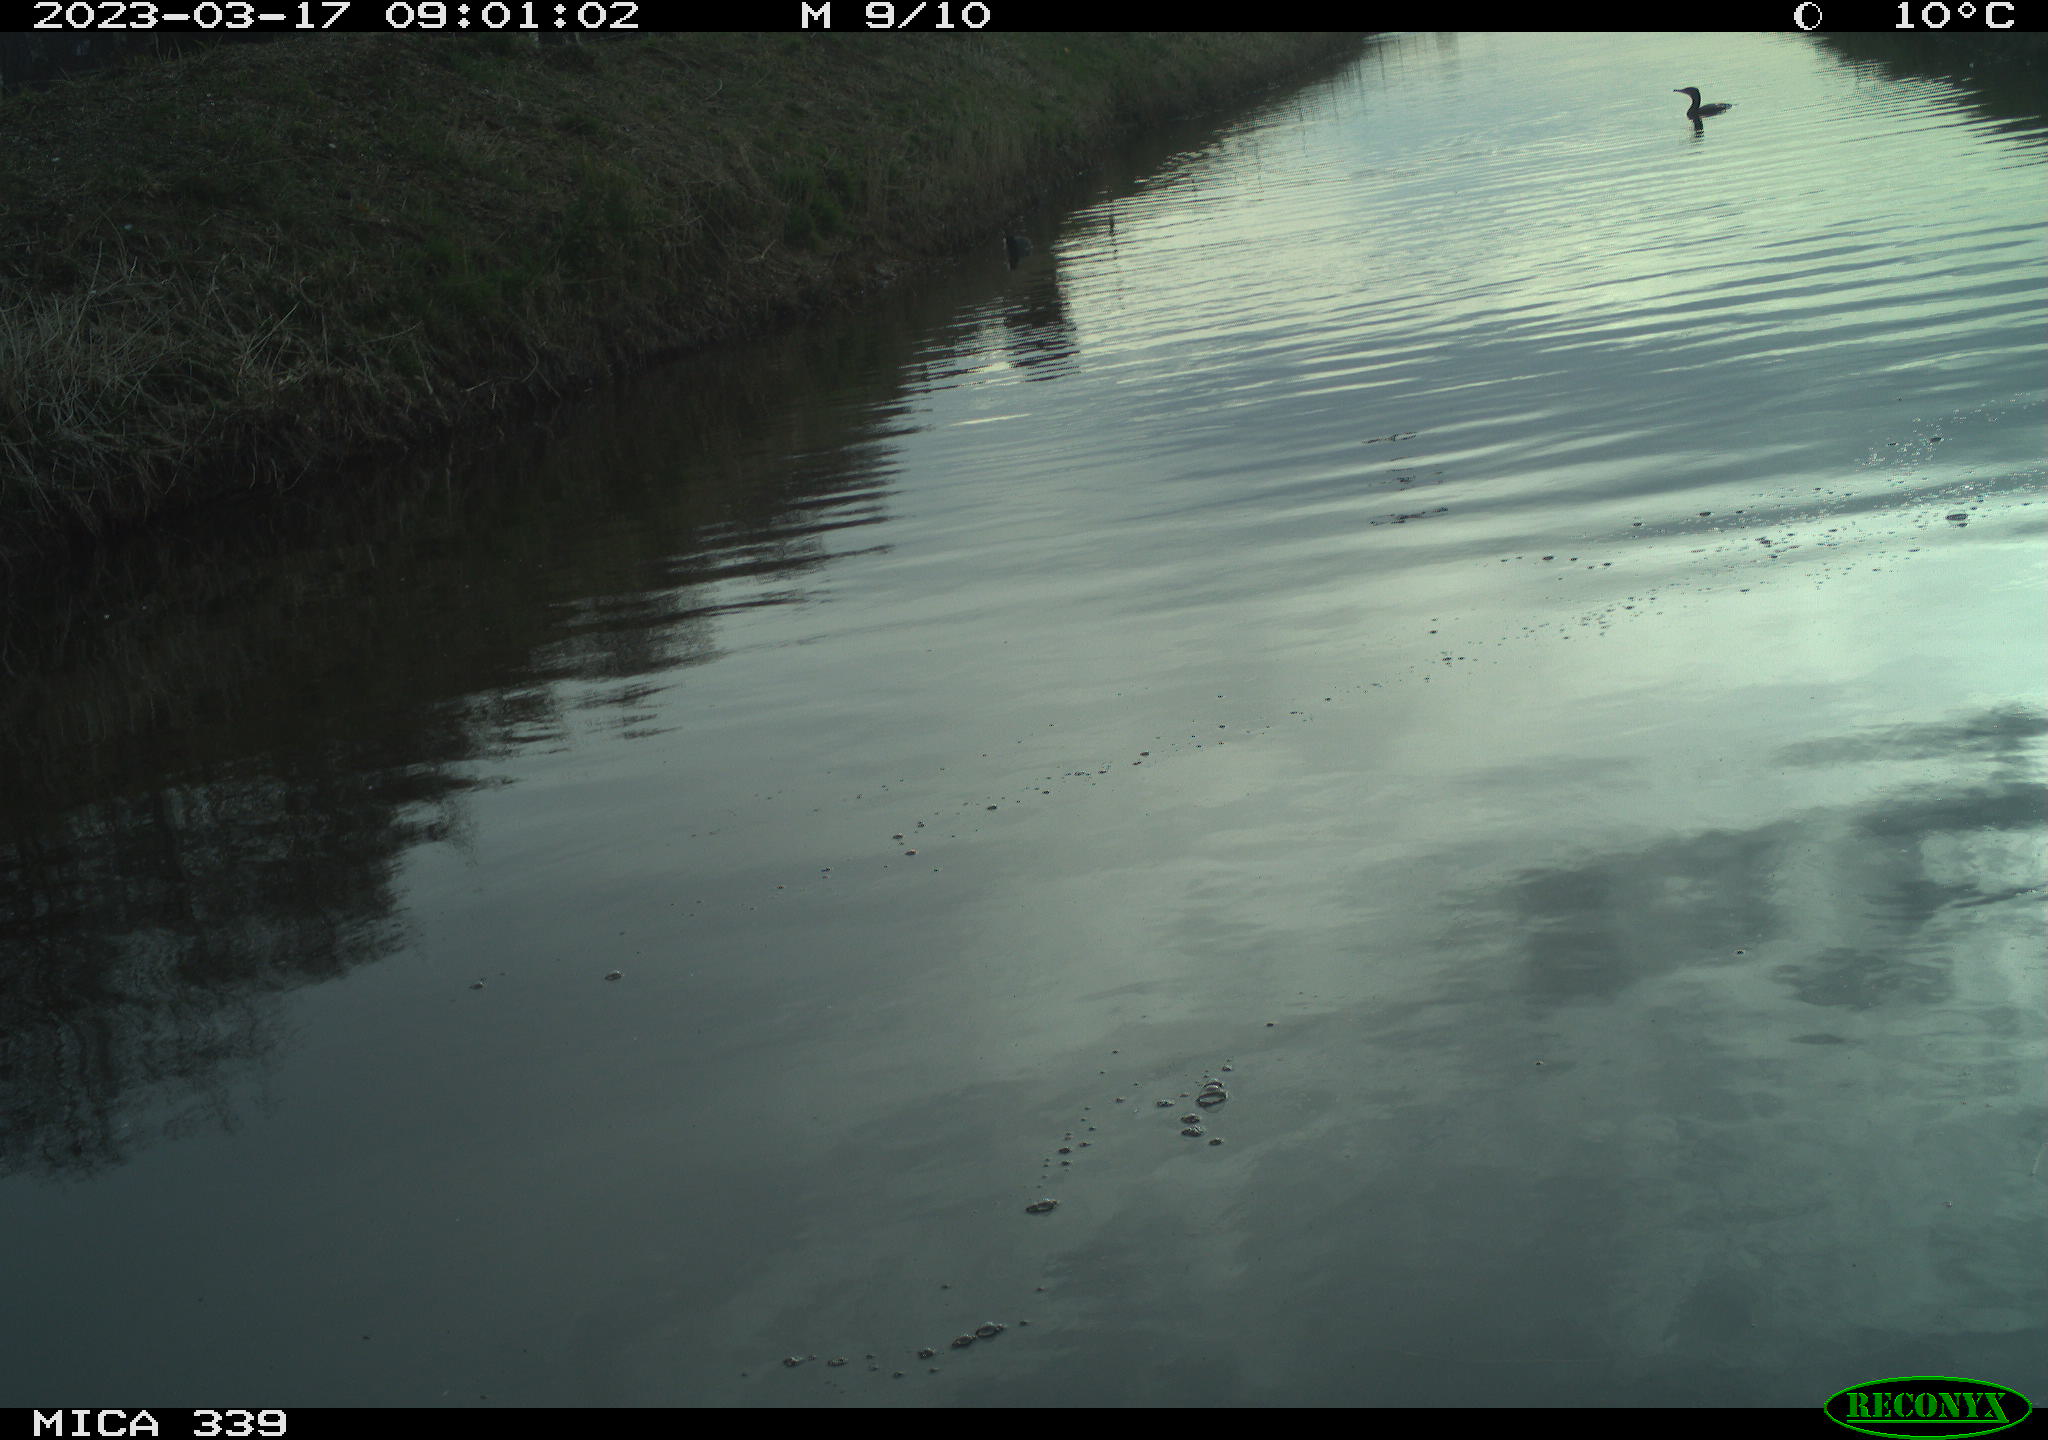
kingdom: Animalia
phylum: Chordata
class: Aves
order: Gruiformes
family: Rallidae
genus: Fulica
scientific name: Fulica atra
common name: Eurasian coot
